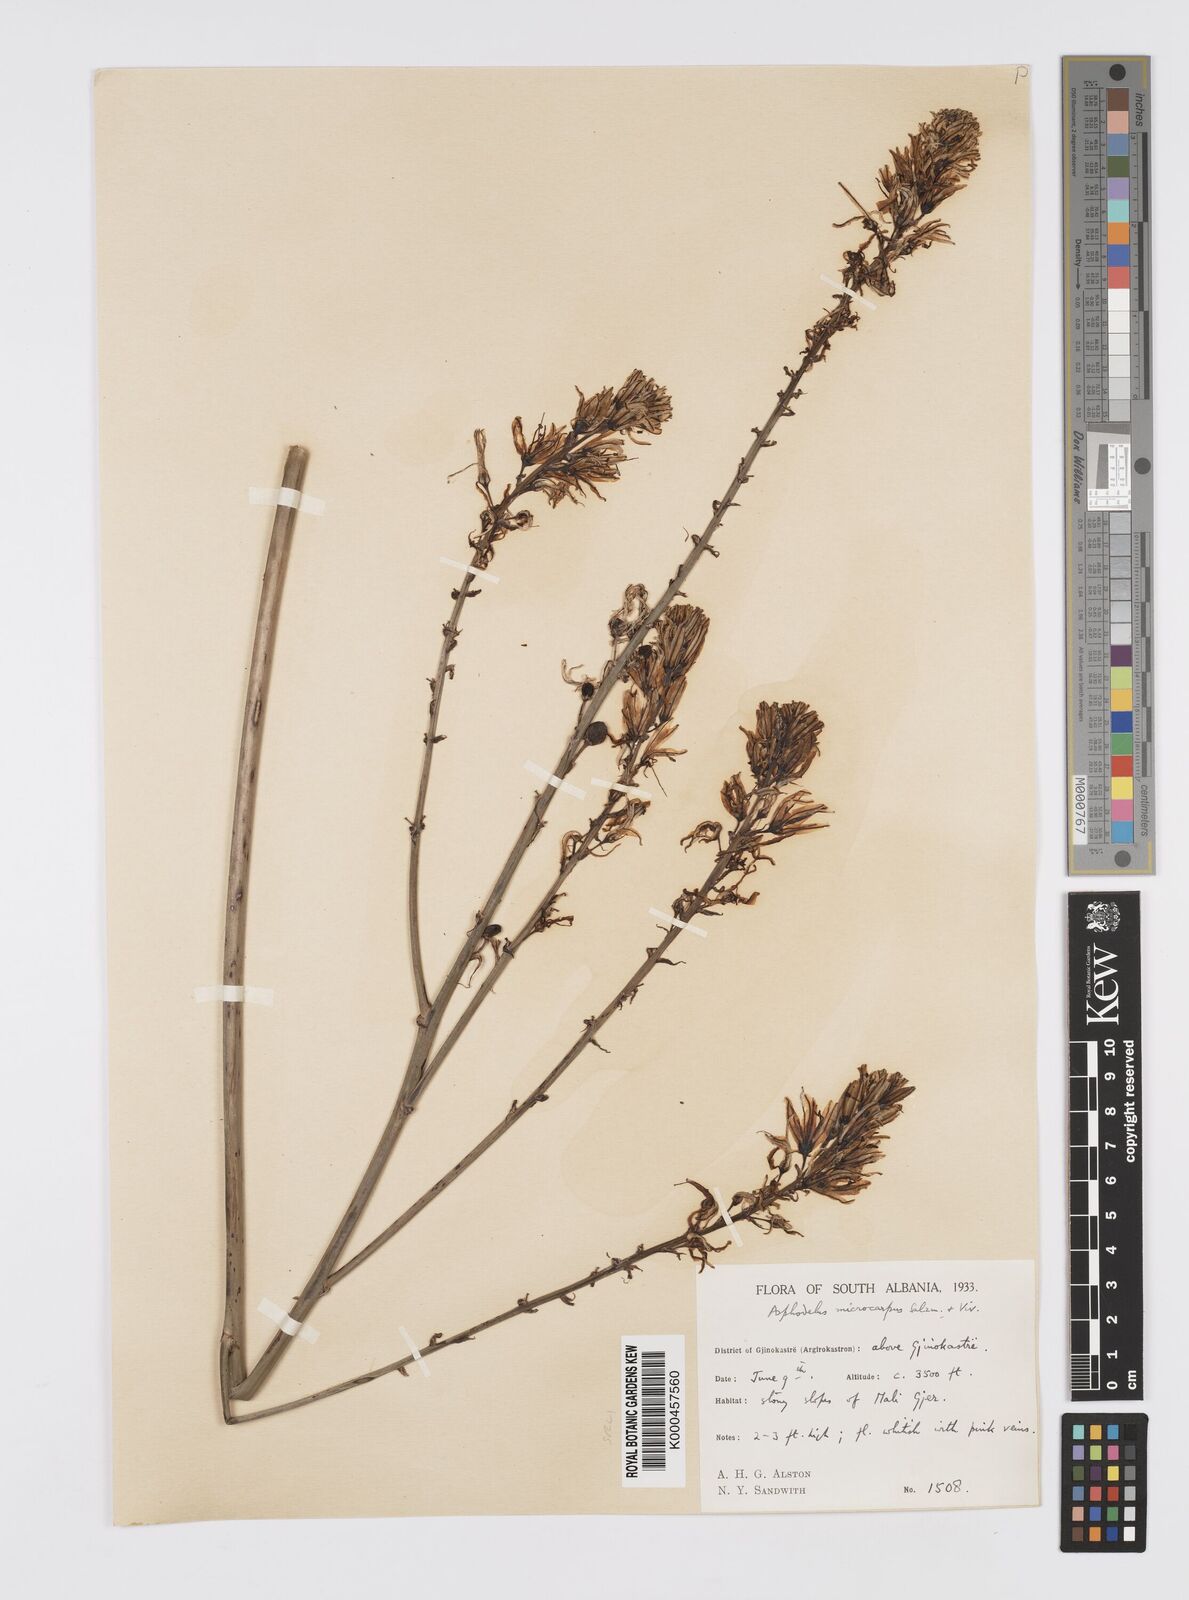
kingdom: Plantae
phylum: Tracheophyta
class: Liliopsida
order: Asparagales
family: Asphodelaceae
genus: Asphodelus
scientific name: Asphodelus aestivus
